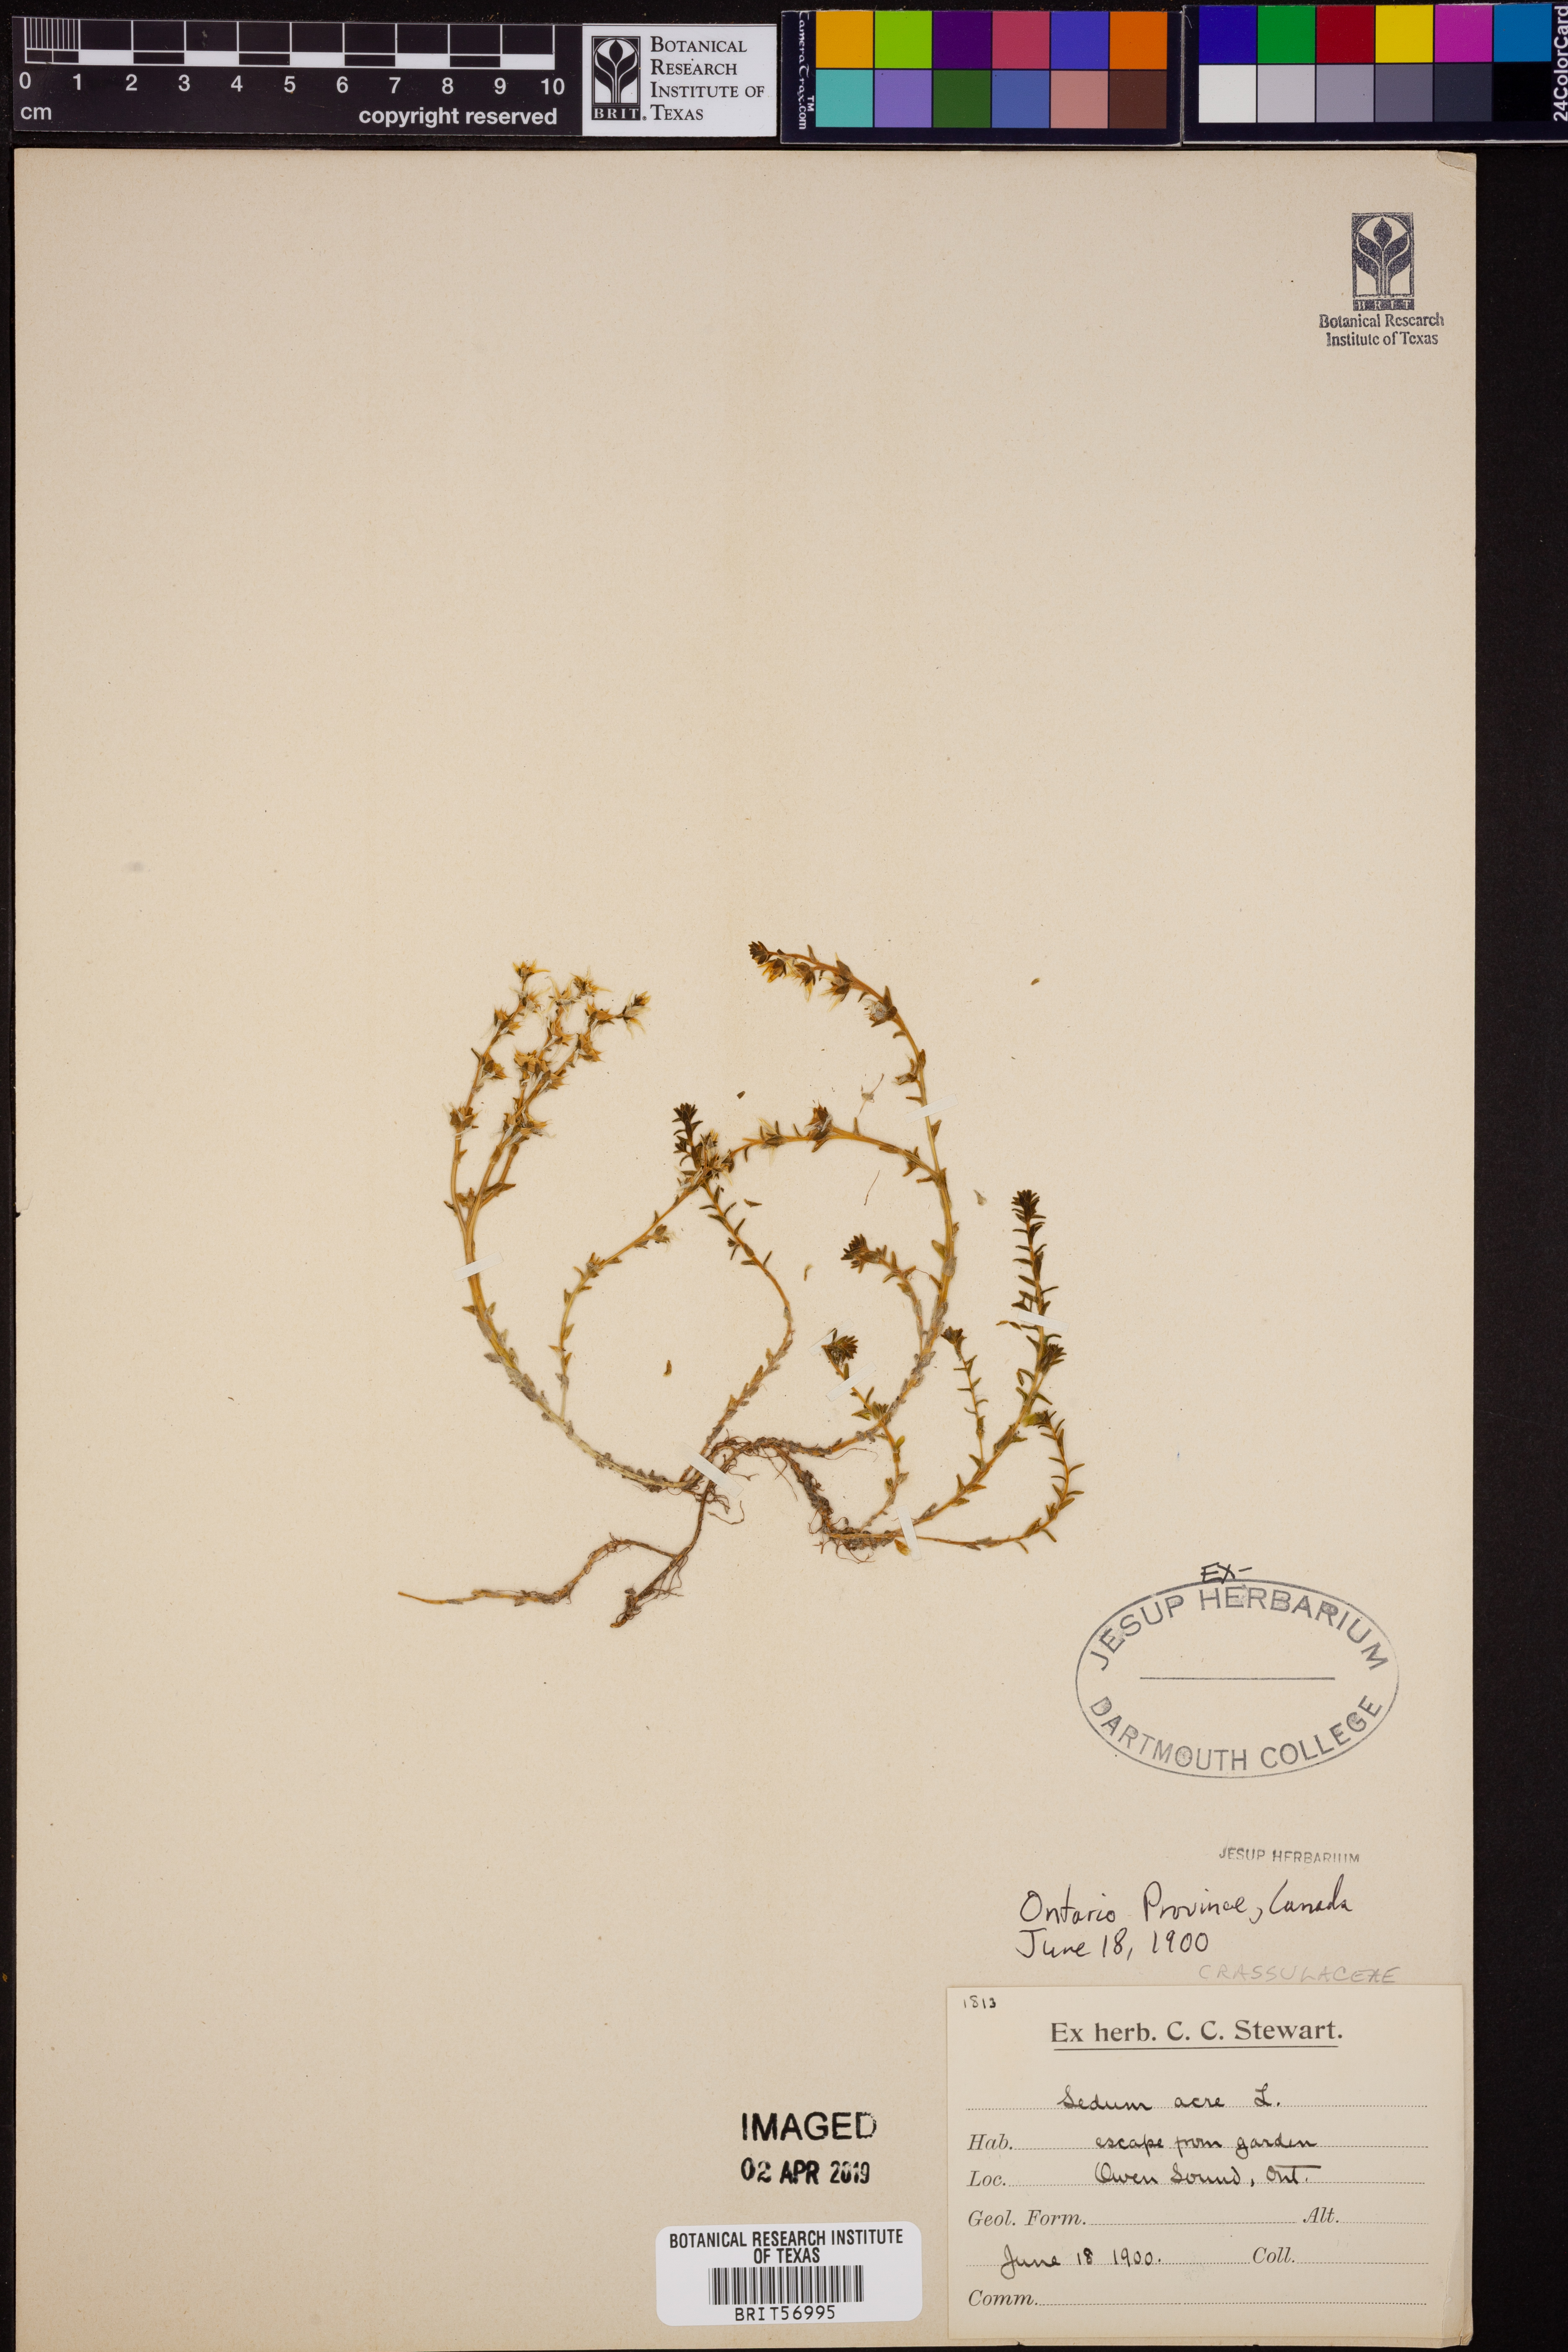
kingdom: Plantae
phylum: Tracheophyta
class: Magnoliopsida
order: Saxifragales
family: Crassulaceae
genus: Sedum
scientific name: Sedum acre
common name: Biting stonecrop
